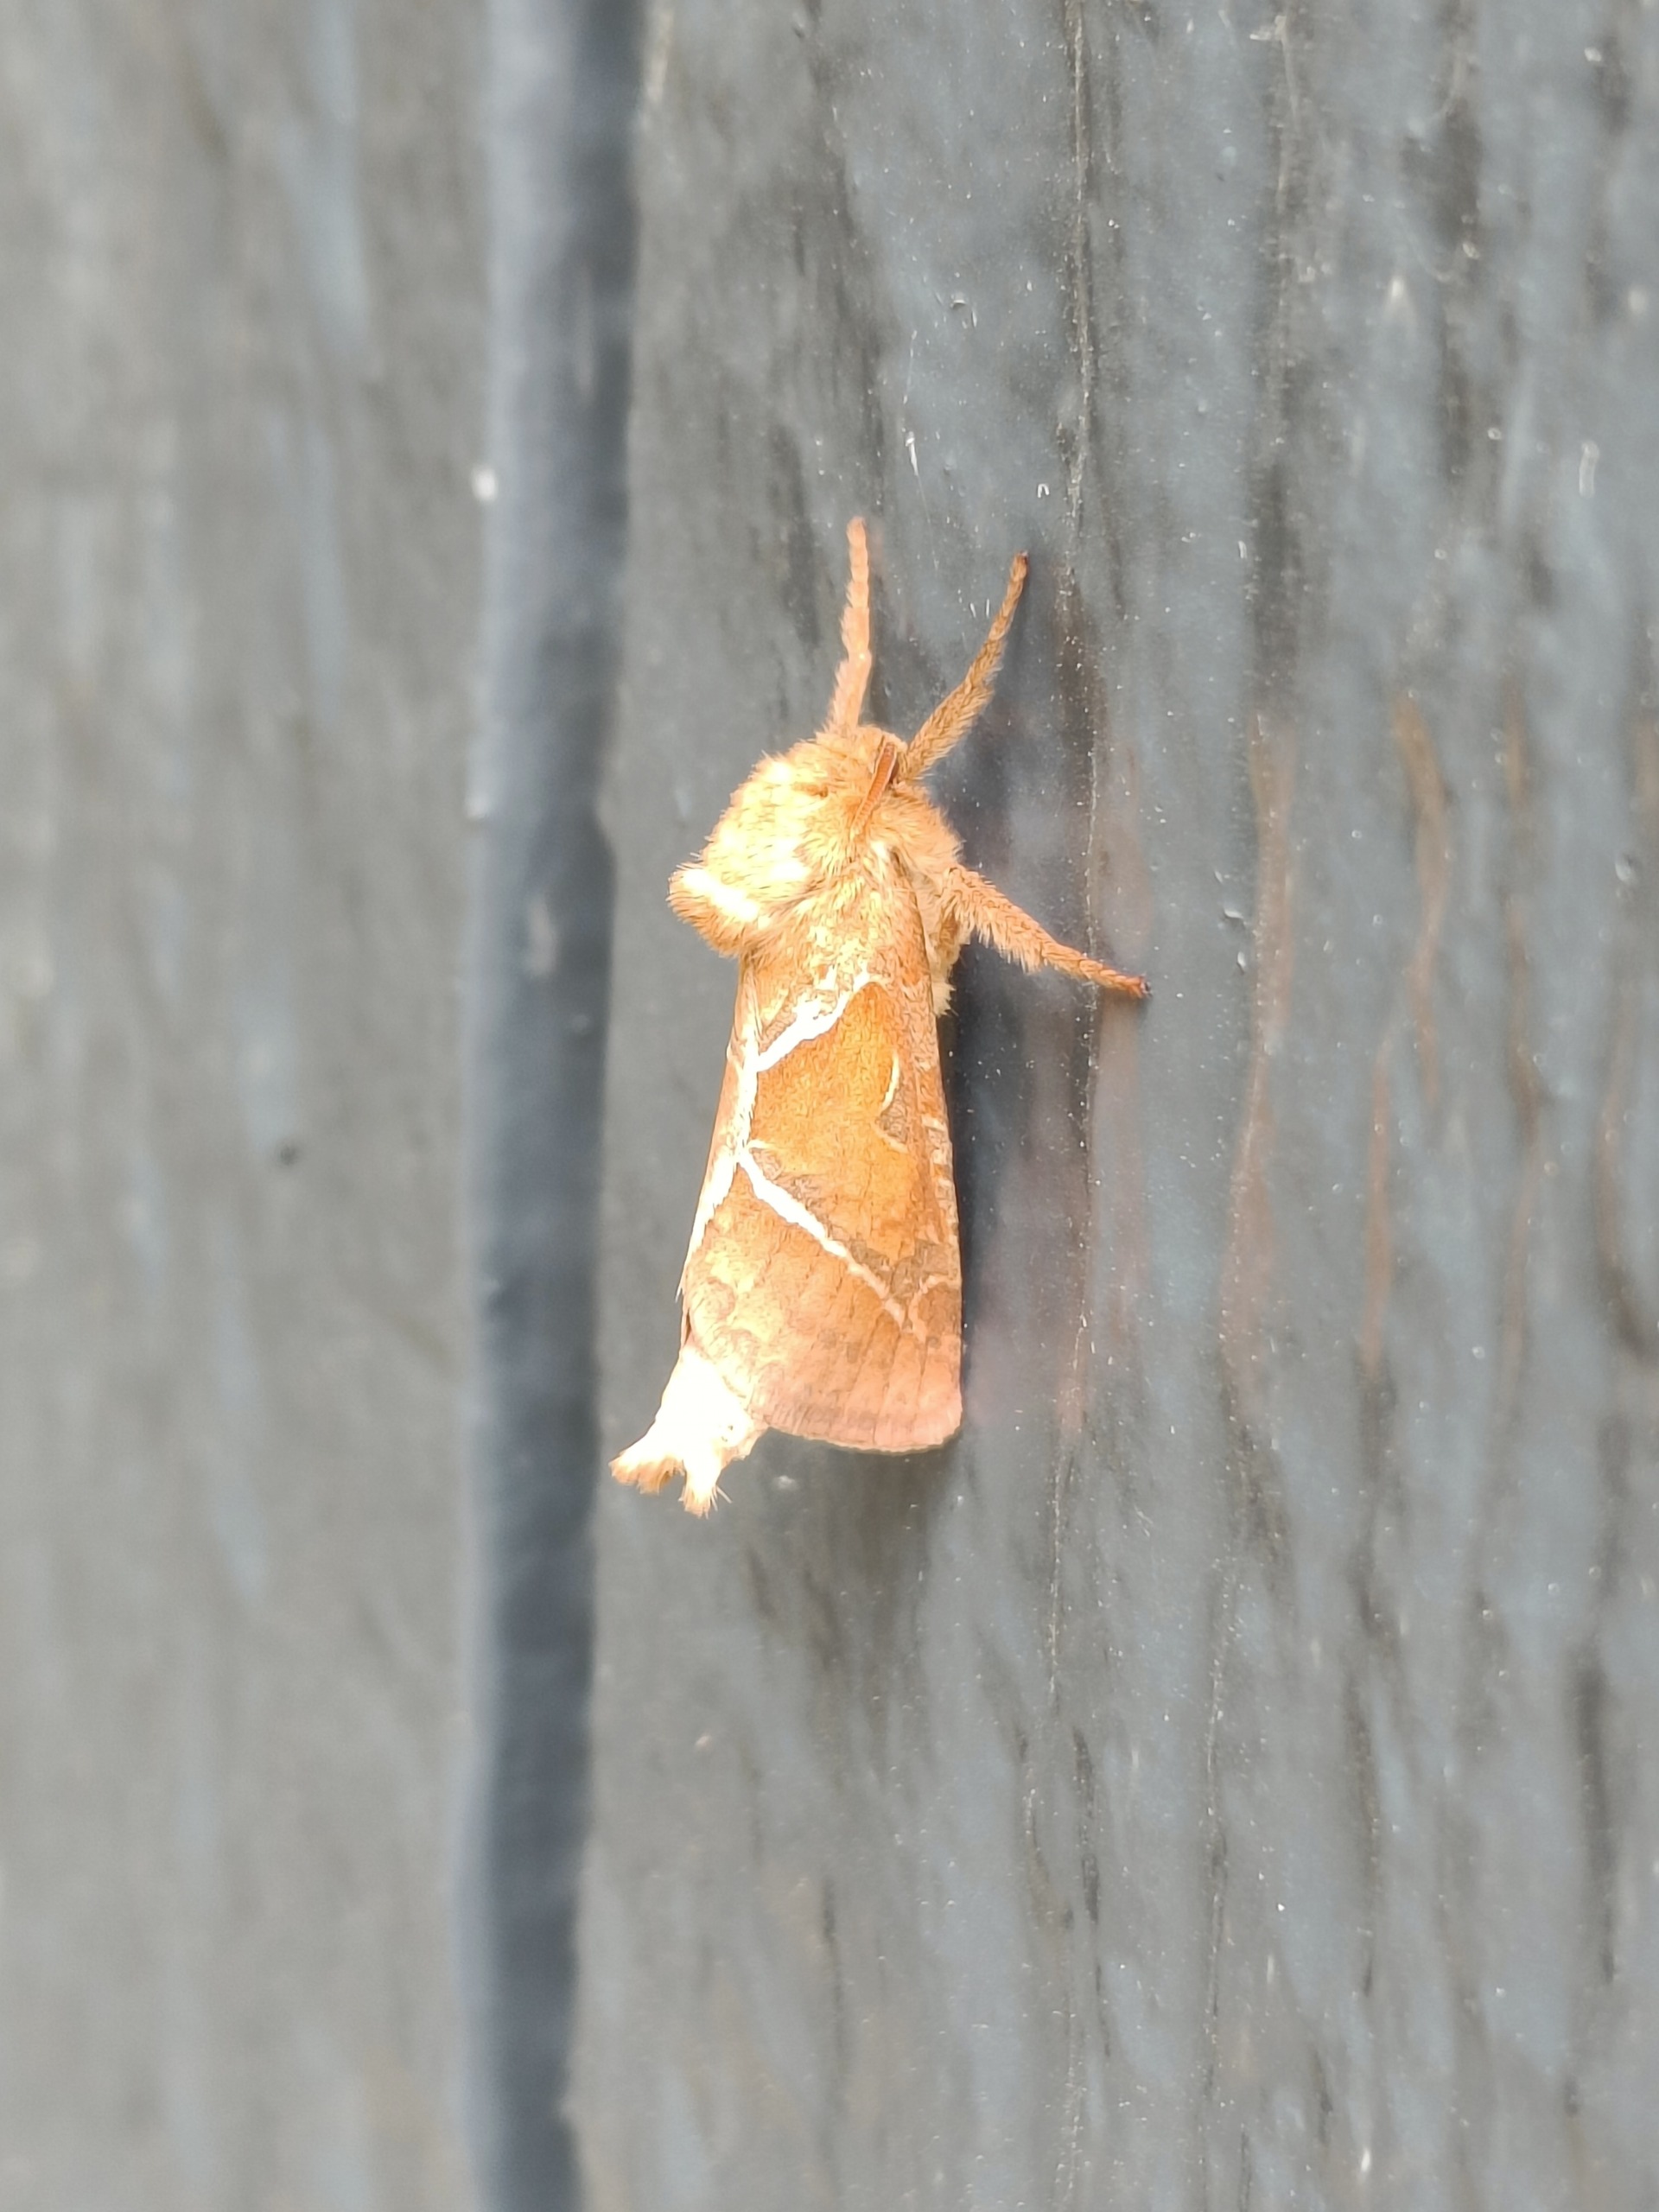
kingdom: Animalia
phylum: Arthropoda
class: Insecta
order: Lepidoptera
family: Hepialidae
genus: Triodia
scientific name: Triodia sylvina
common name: Skræpperodæder
